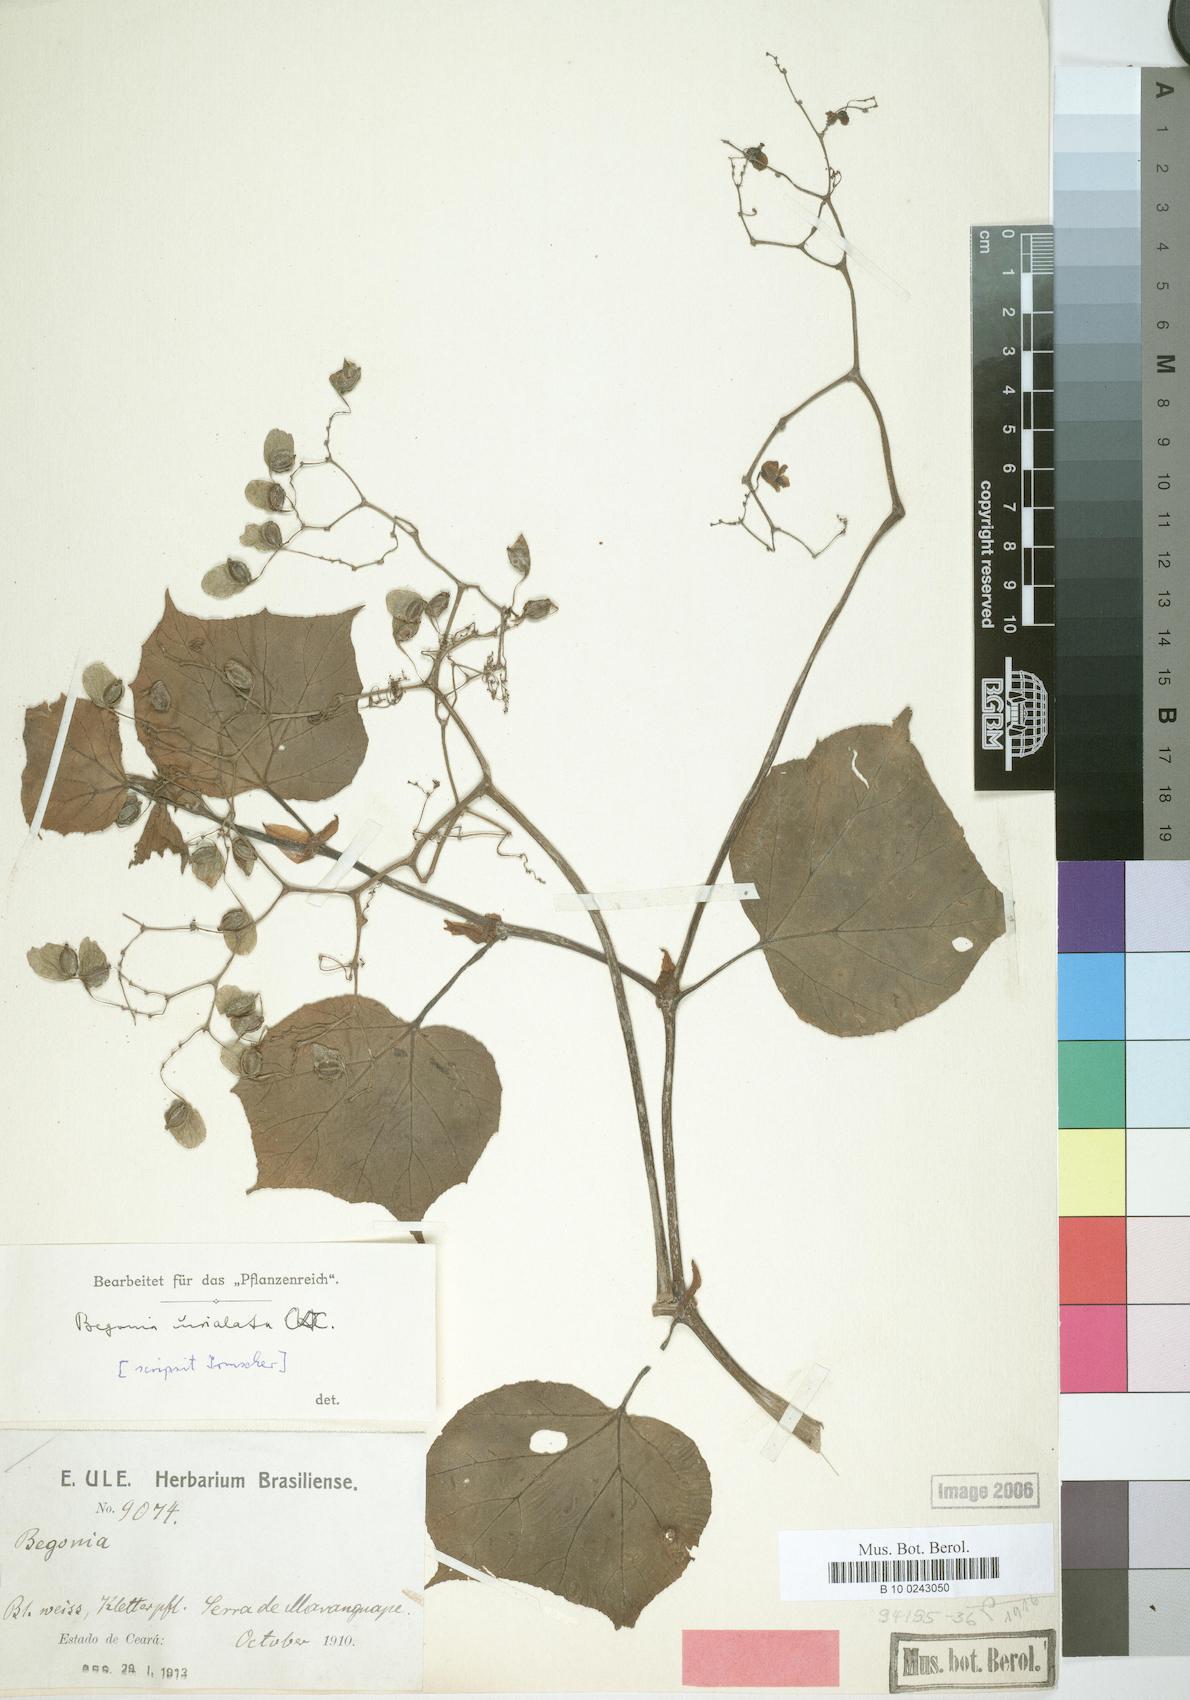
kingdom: Plantae
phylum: Tracheophyta
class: Magnoliopsida
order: Cucurbitales
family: Begoniaceae
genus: Begonia
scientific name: Begonia unialata
